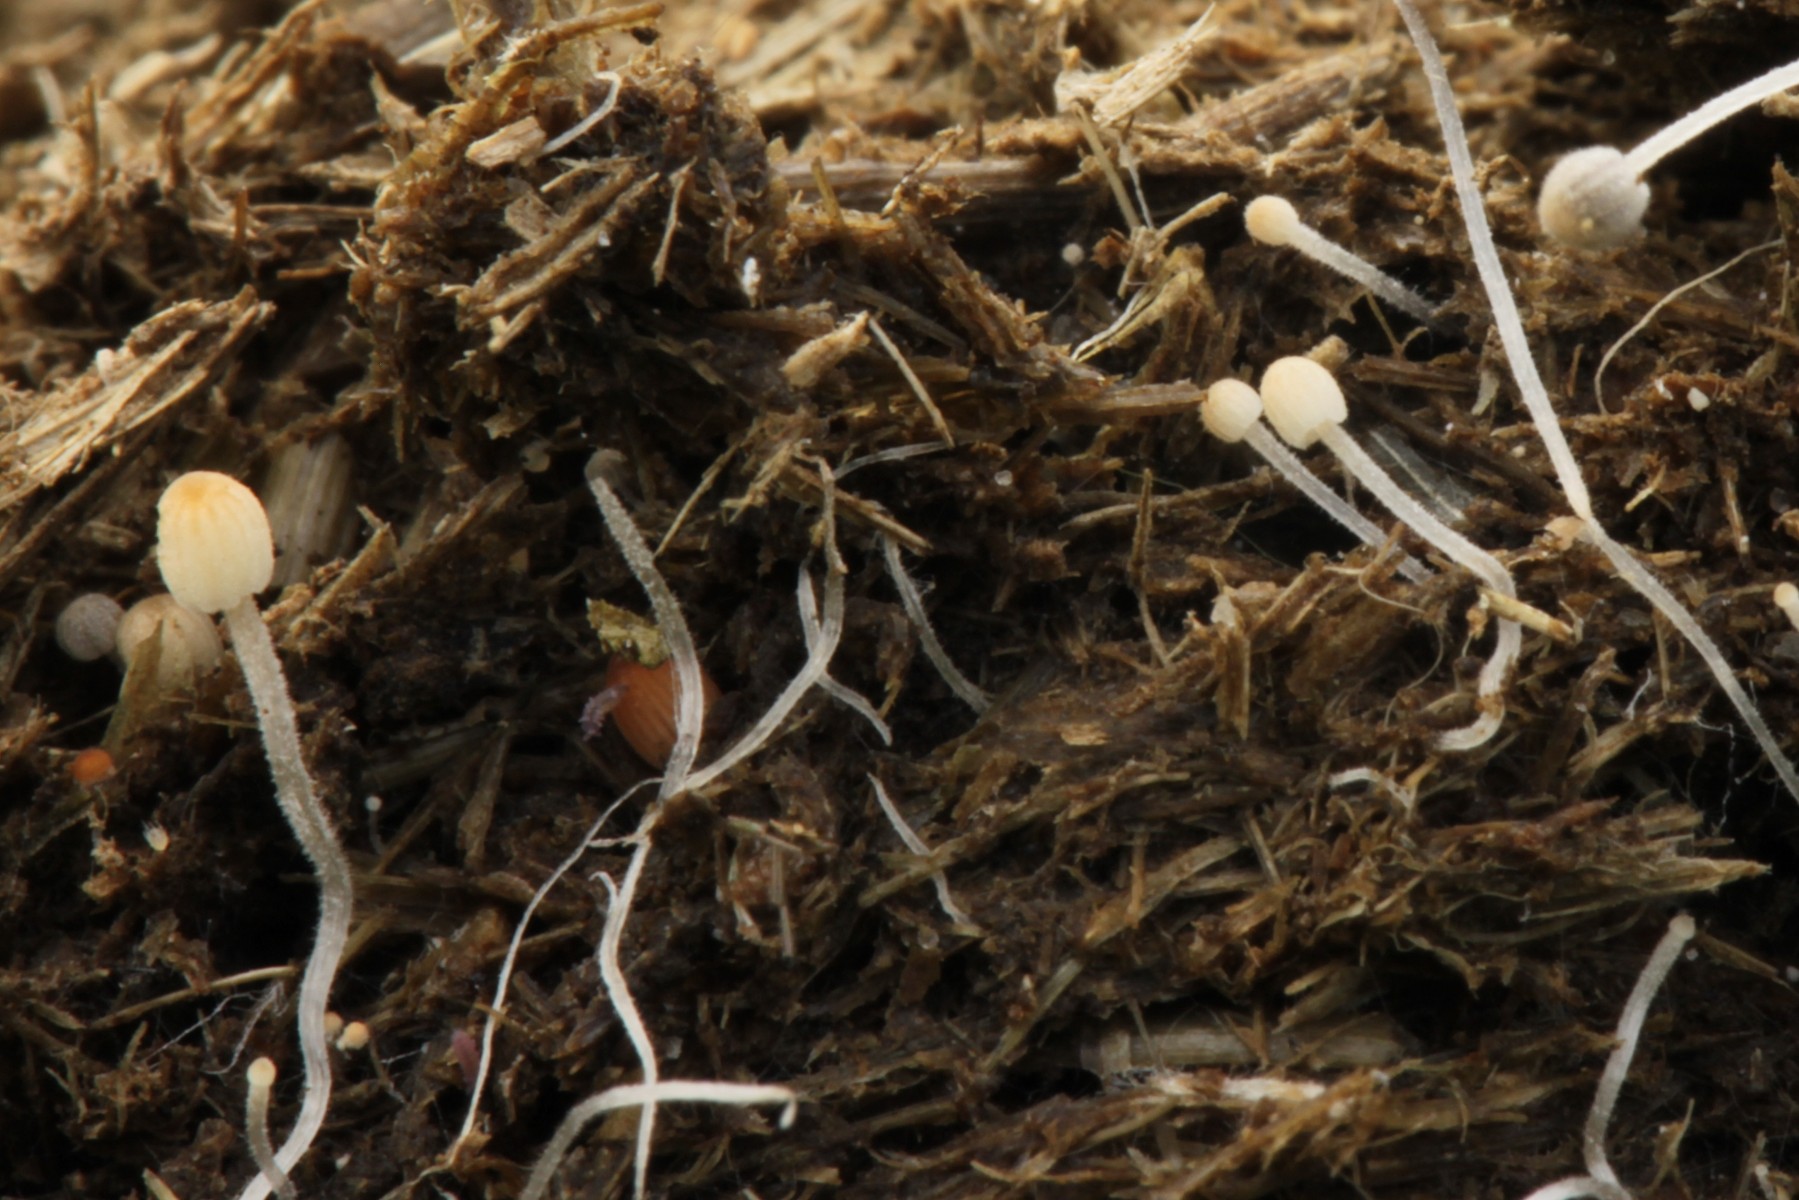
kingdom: Fungi
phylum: Basidiomycota
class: Agaricomycetes
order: Agaricales
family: Psathyrellaceae
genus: Coprinellus
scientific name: Coprinellus pusillulus
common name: lillebitte blækhat
